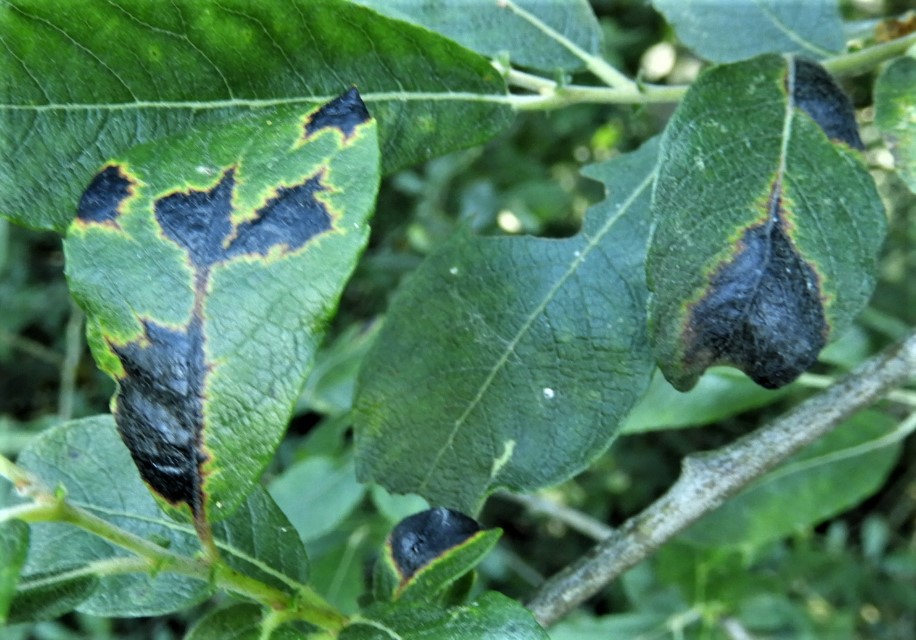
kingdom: Fungi
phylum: Ascomycota
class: Leotiomycetes
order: Rhytismatales
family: Rhytismataceae
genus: Rhytisma
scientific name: Rhytisma salicinum
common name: pile-rynkeplet
